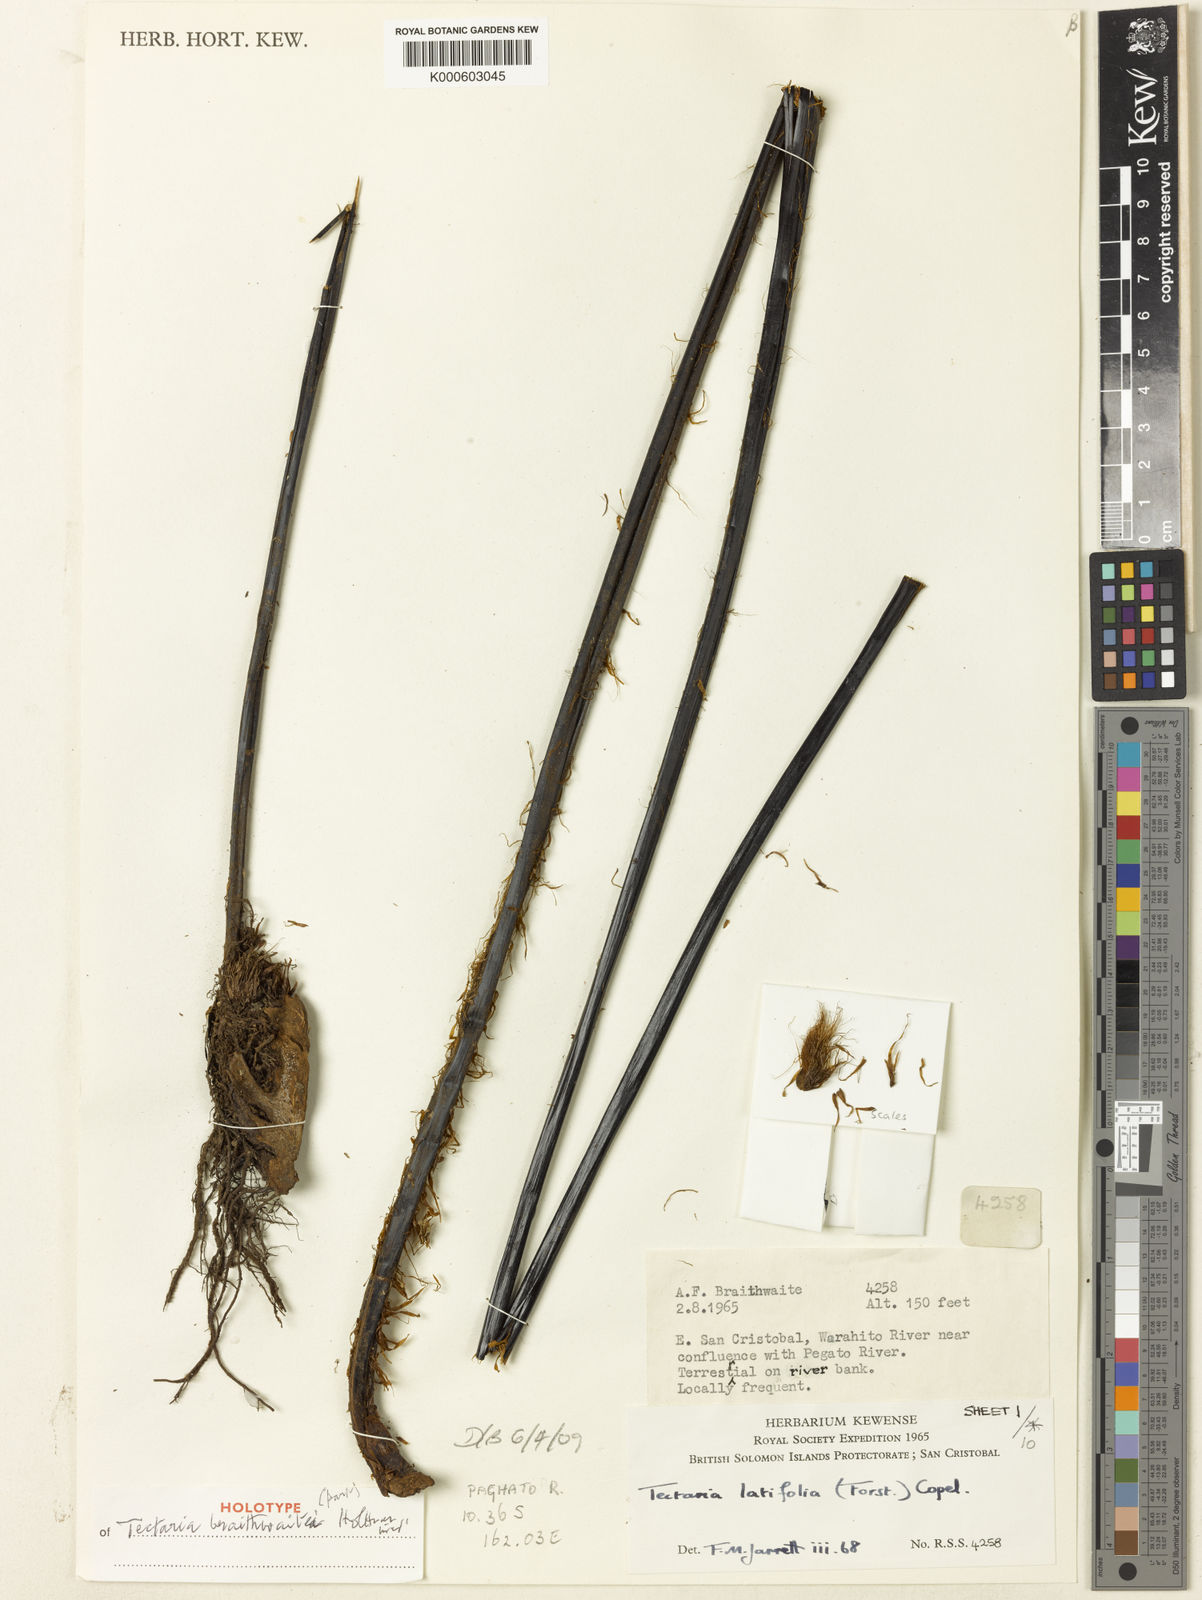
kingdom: Plantae
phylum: Tracheophyta
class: Polypodiopsida
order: Polypodiales
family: Tectariaceae
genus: Tectaria
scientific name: Tectaria
